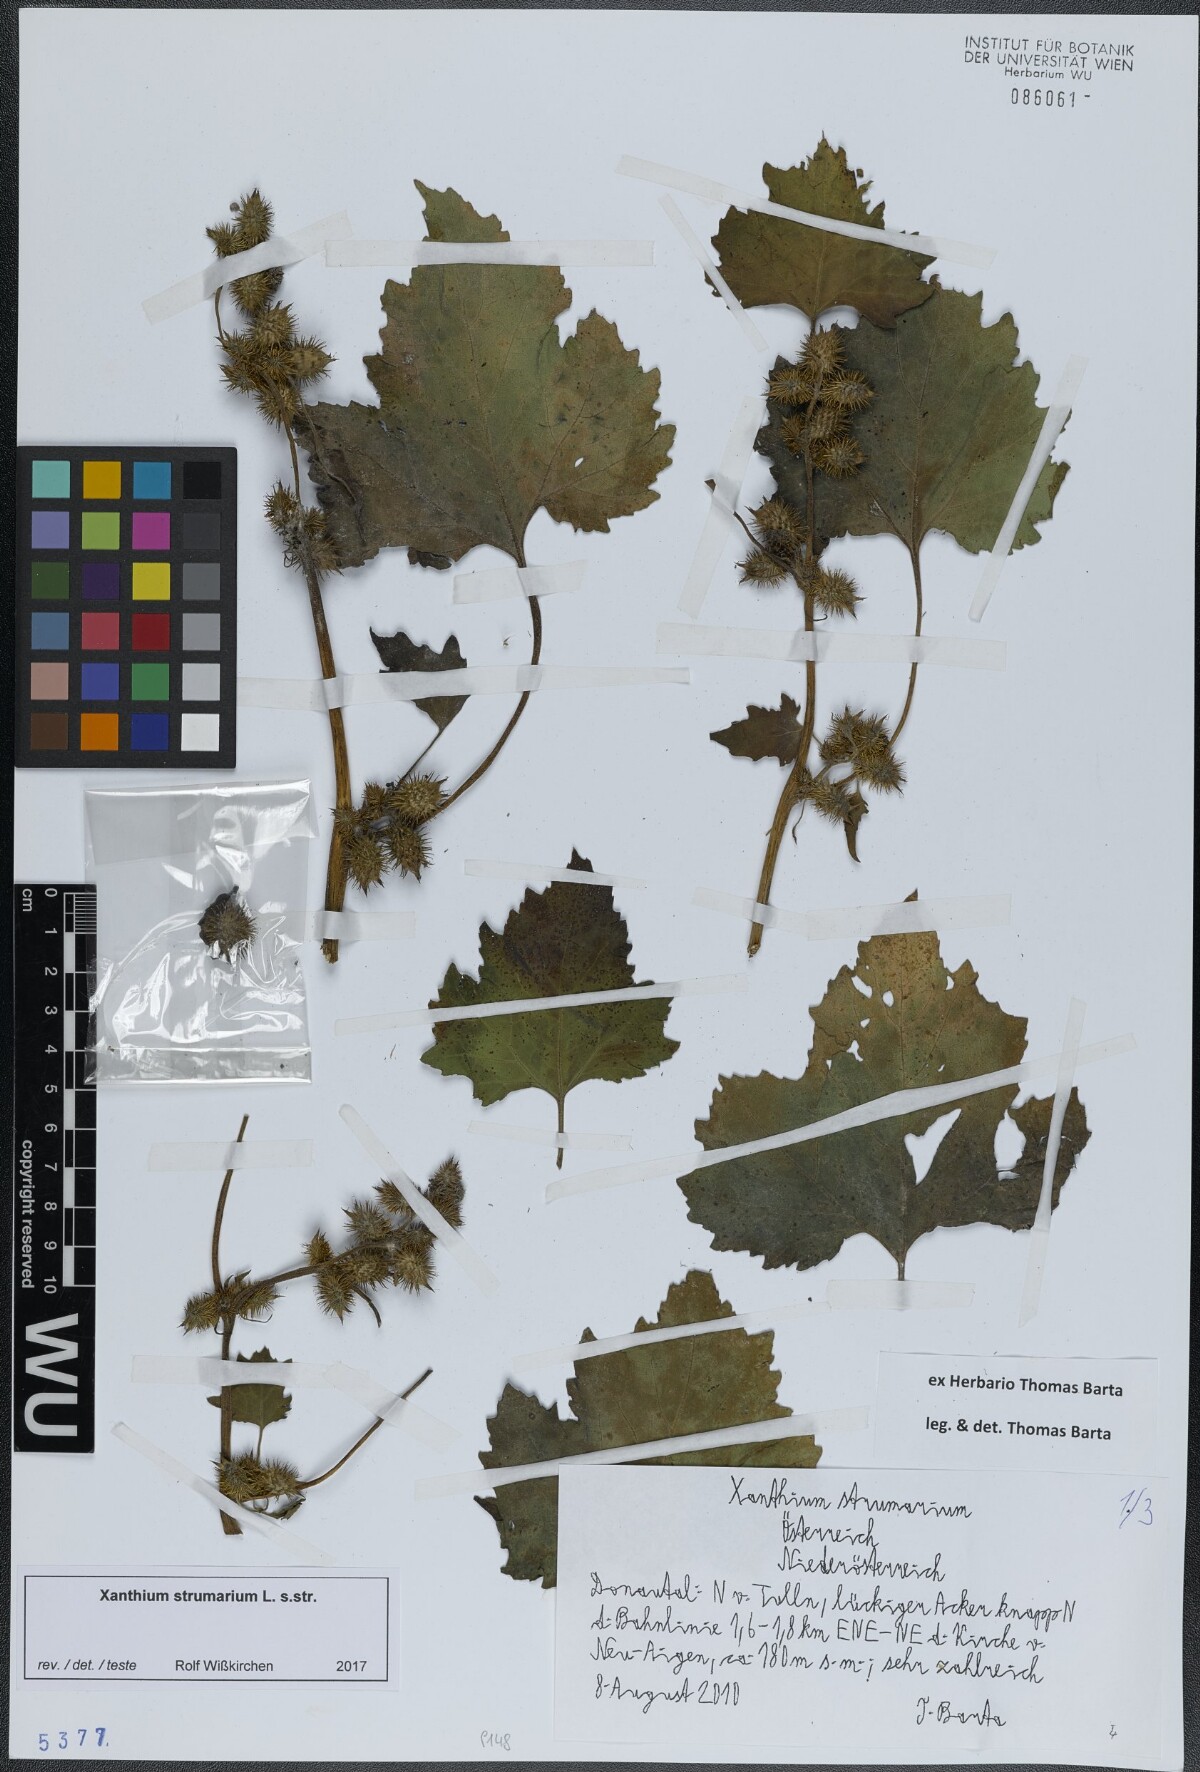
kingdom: Plantae
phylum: Tracheophyta
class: Magnoliopsida
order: Asterales
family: Asteraceae
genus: Xanthium
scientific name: Xanthium strumarium
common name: Rough cocklebur
